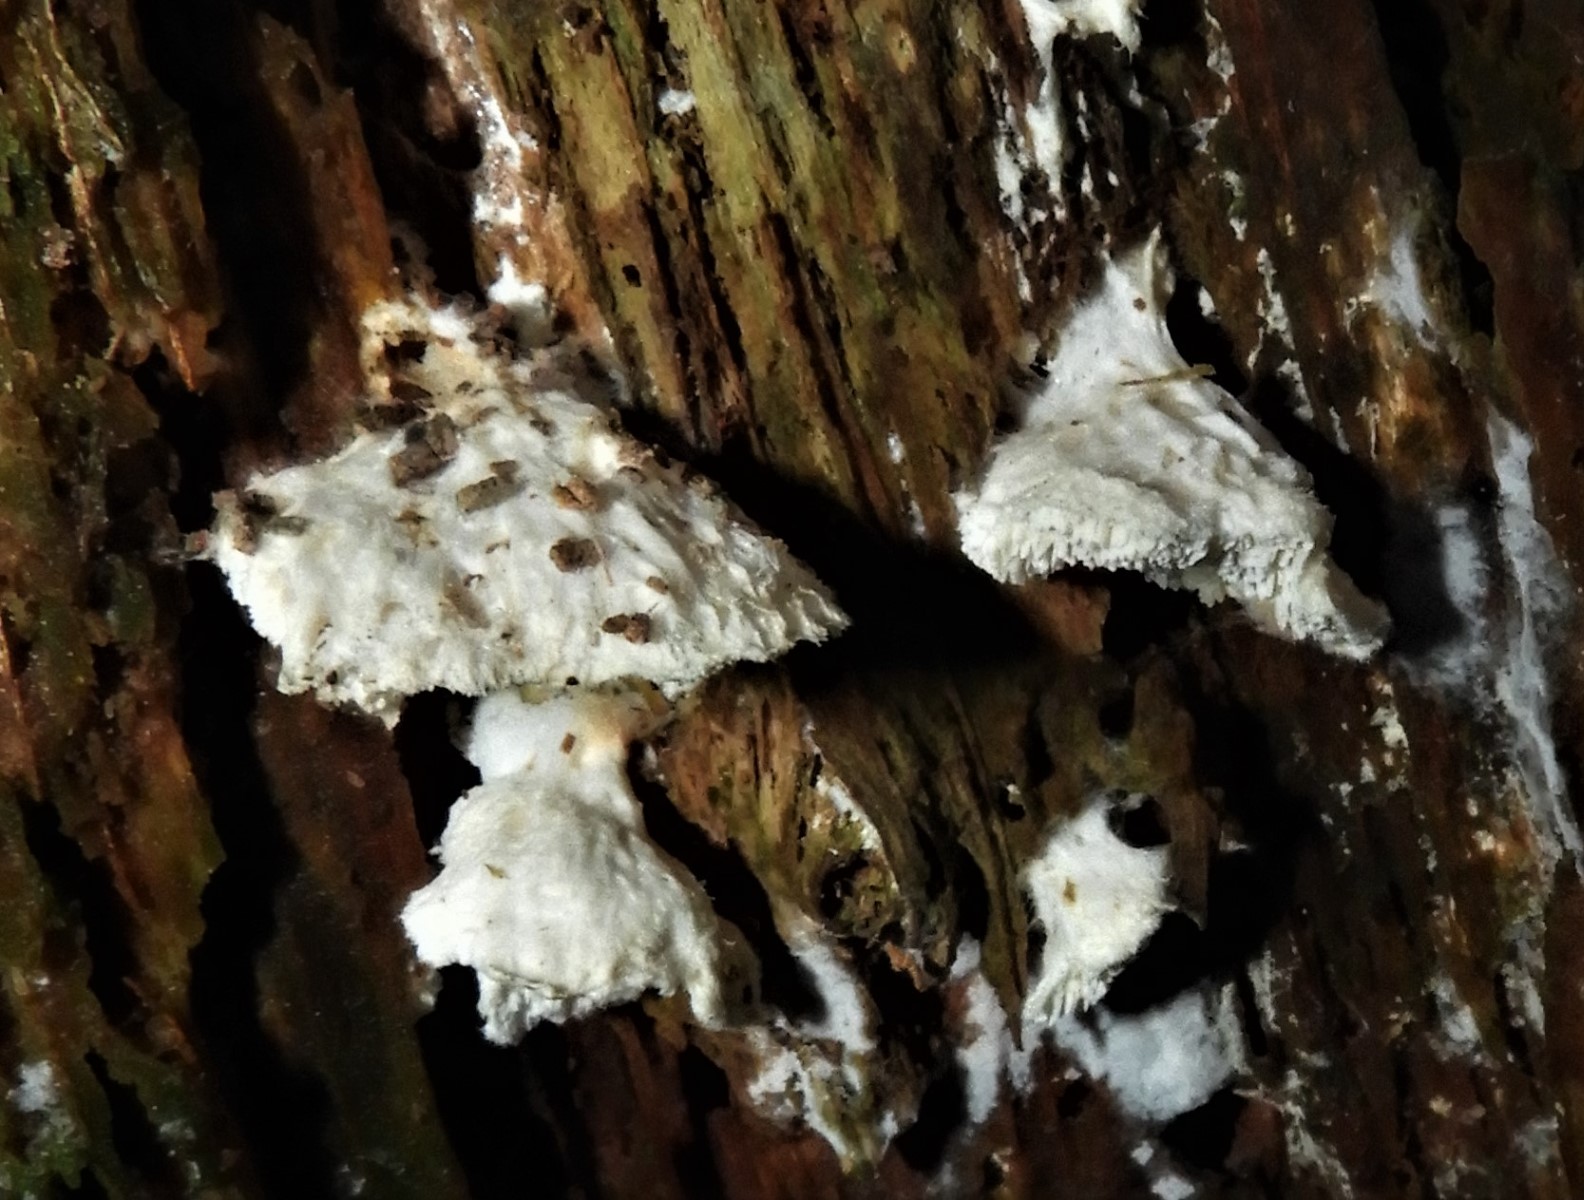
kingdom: Fungi
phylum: Basidiomycota
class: Agaricomycetes
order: Polyporales
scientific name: Polyporales
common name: poresvampordenen
